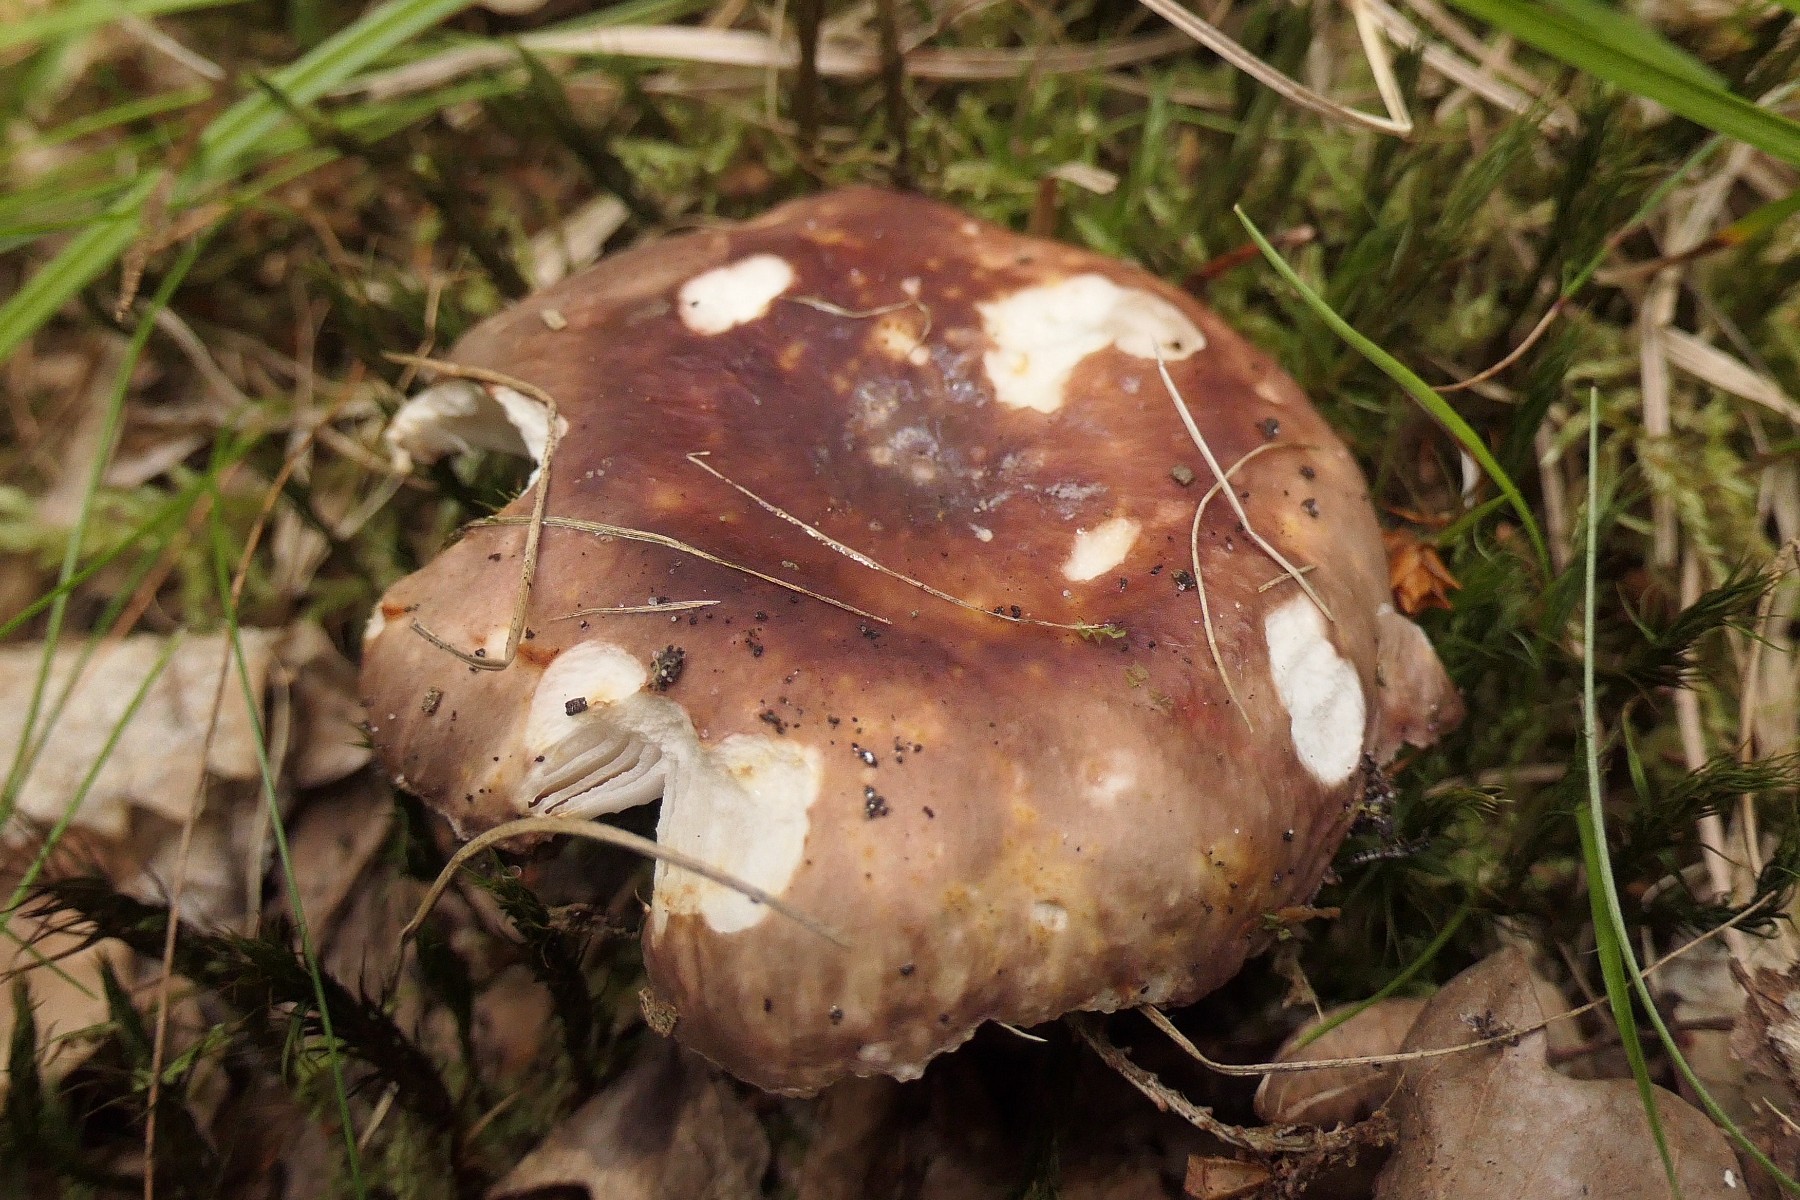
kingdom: Fungi
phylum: Basidiomycota
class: Agaricomycetes
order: Russulales
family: Russulaceae
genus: Russula
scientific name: Russula vesca
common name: spiselig skørhat
